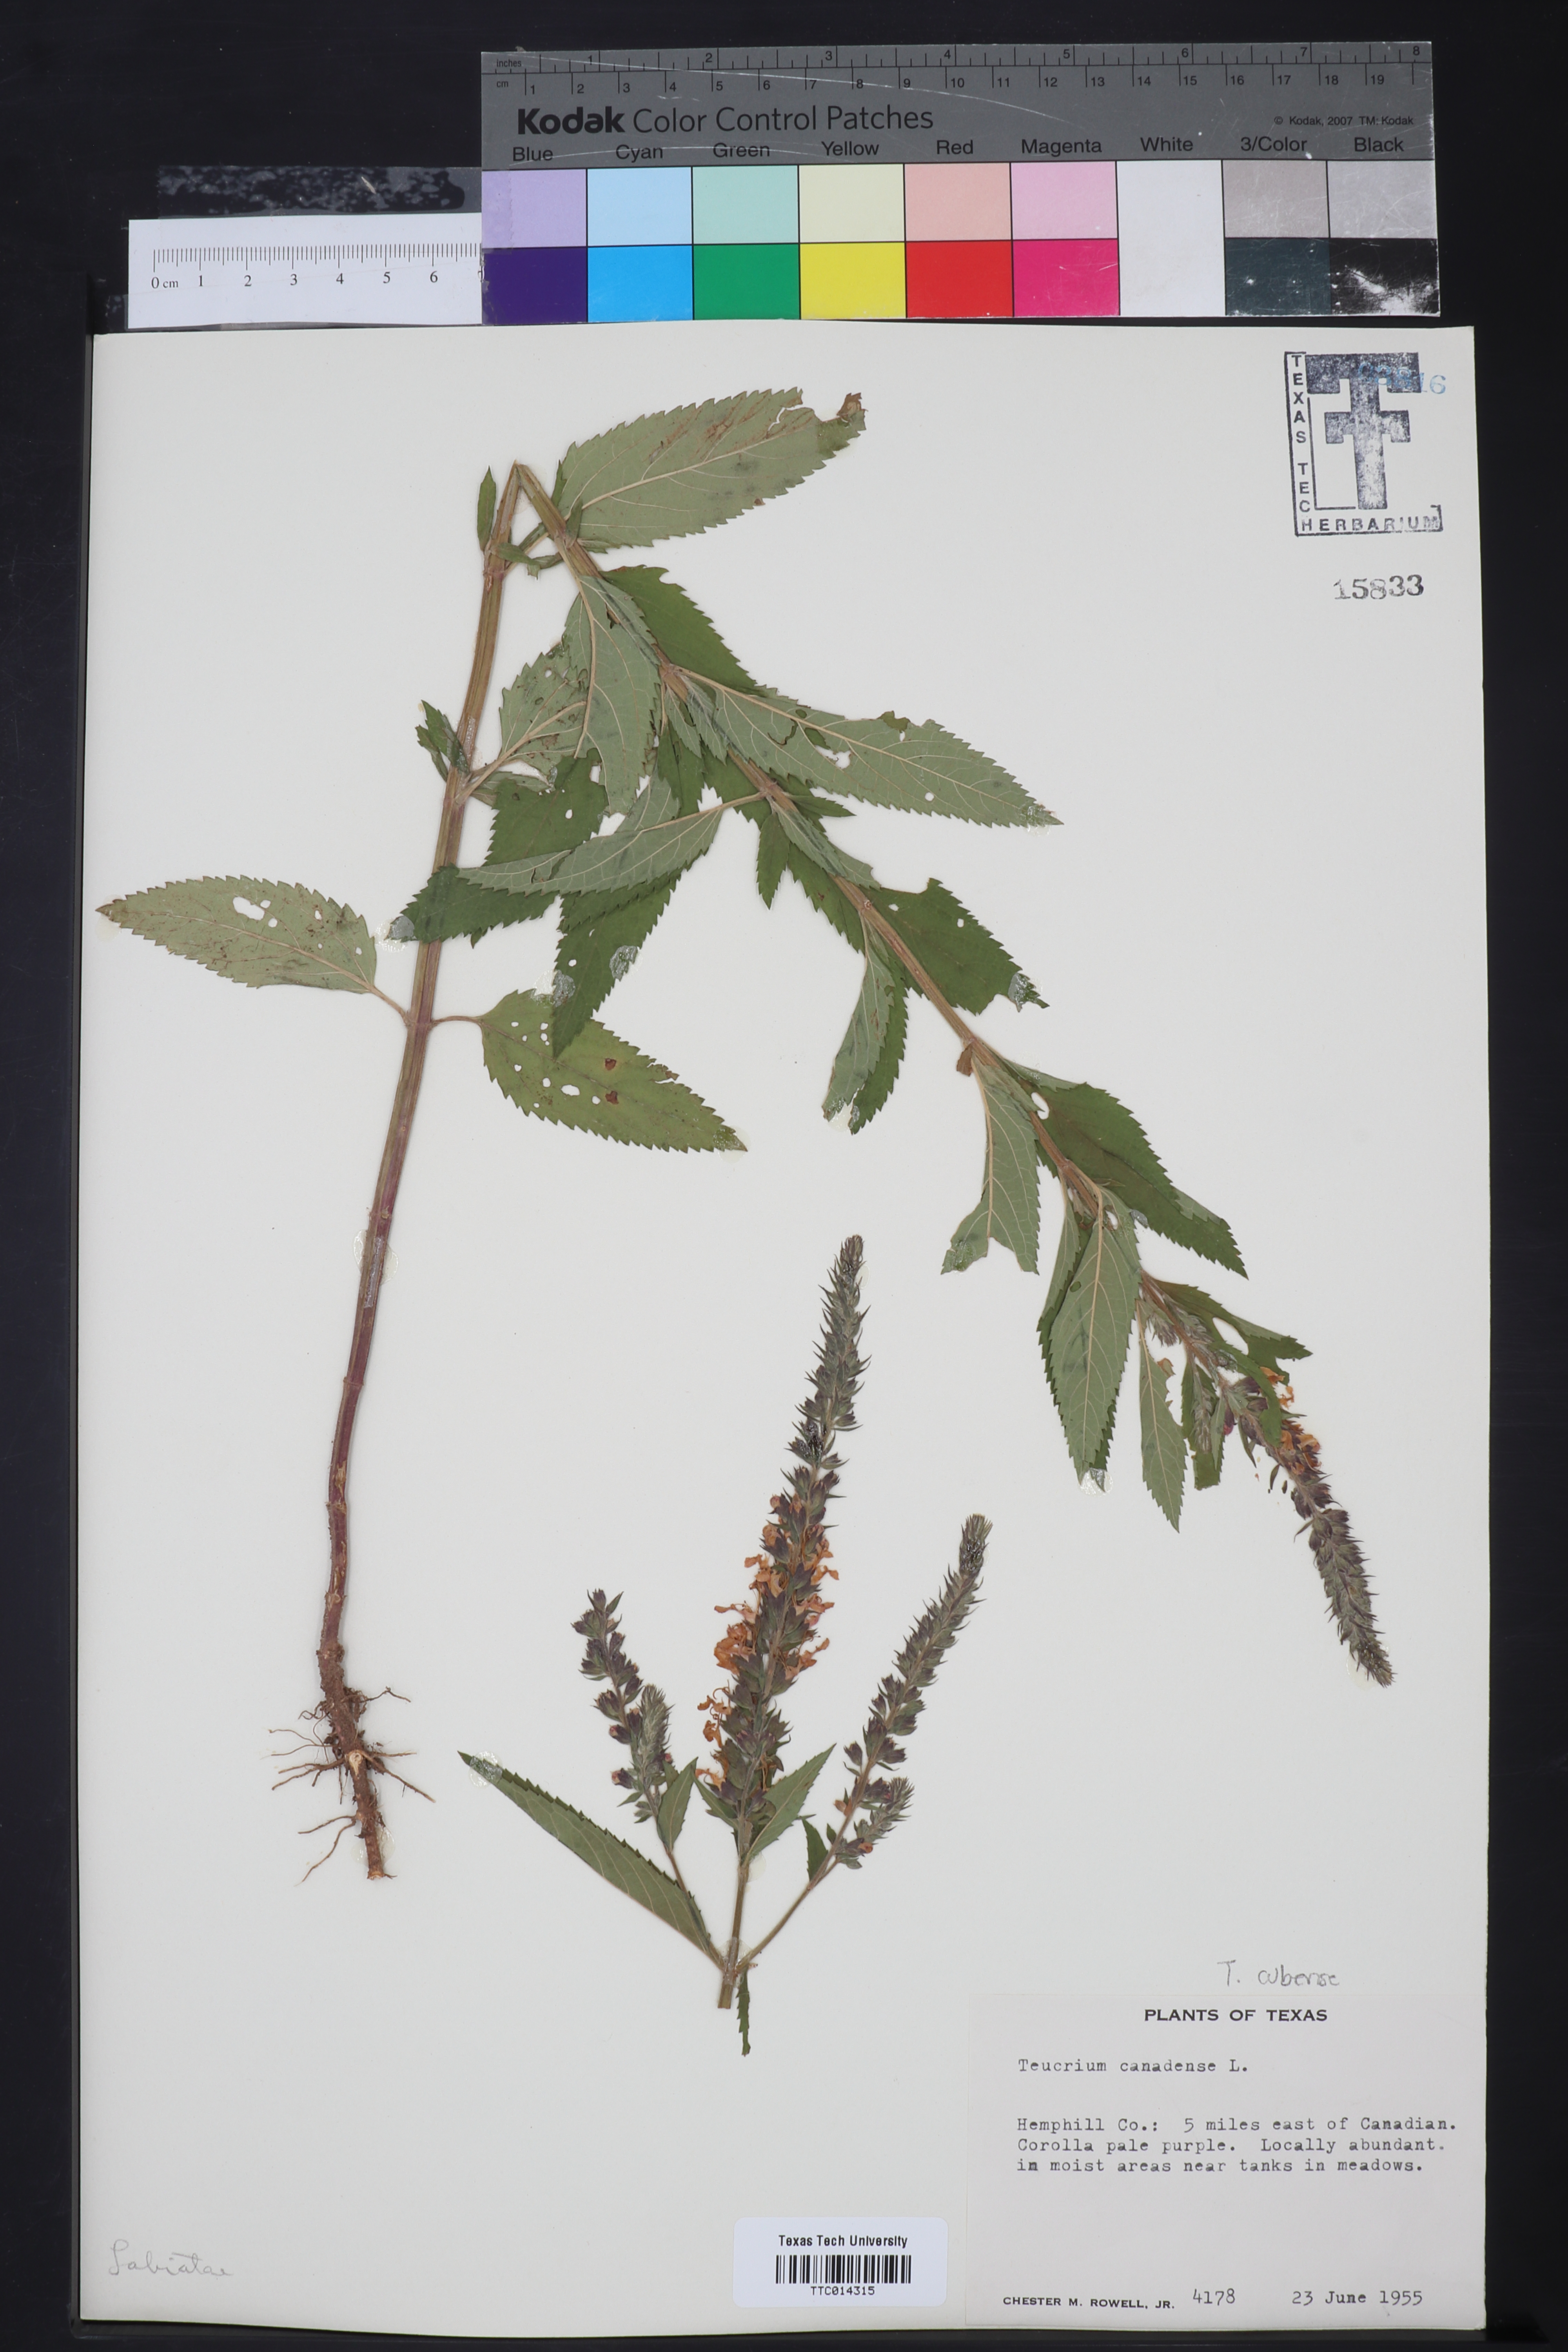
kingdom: Plantae
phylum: Tracheophyta
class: Magnoliopsida
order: Lamiales
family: Lamiaceae
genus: Teucrium
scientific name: Teucrium canadense
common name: American germander
